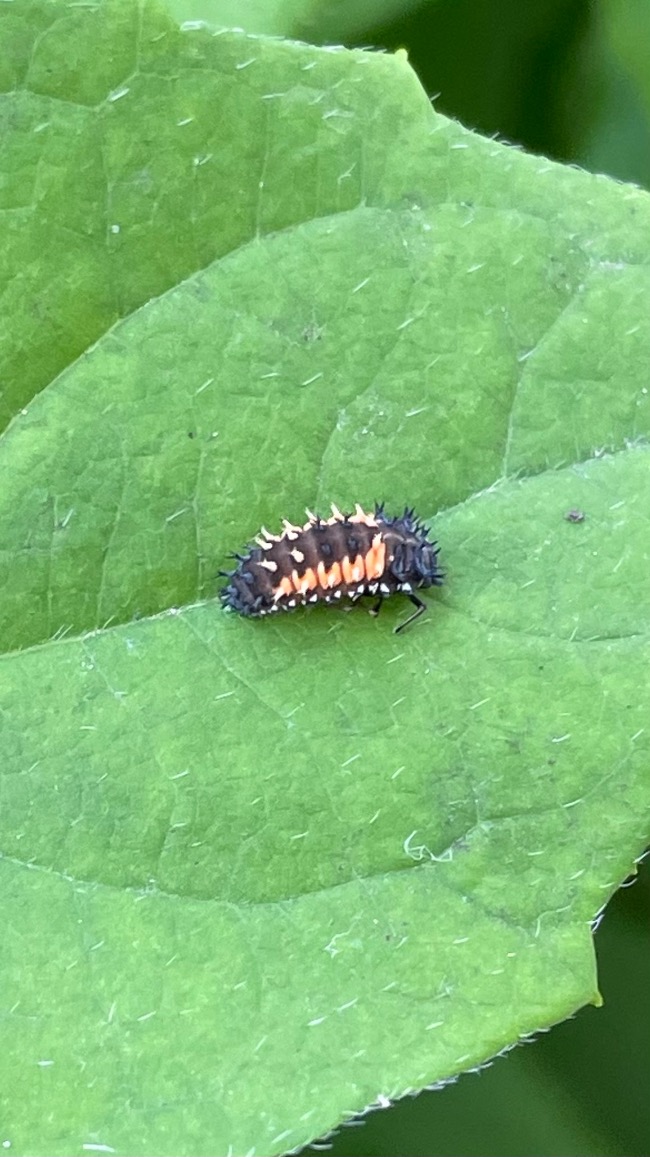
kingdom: Animalia
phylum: Arthropoda
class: Insecta
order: Coleoptera
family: Coccinellidae
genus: Harmonia
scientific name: Harmonia axyridis
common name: Harlekinmariehøne
